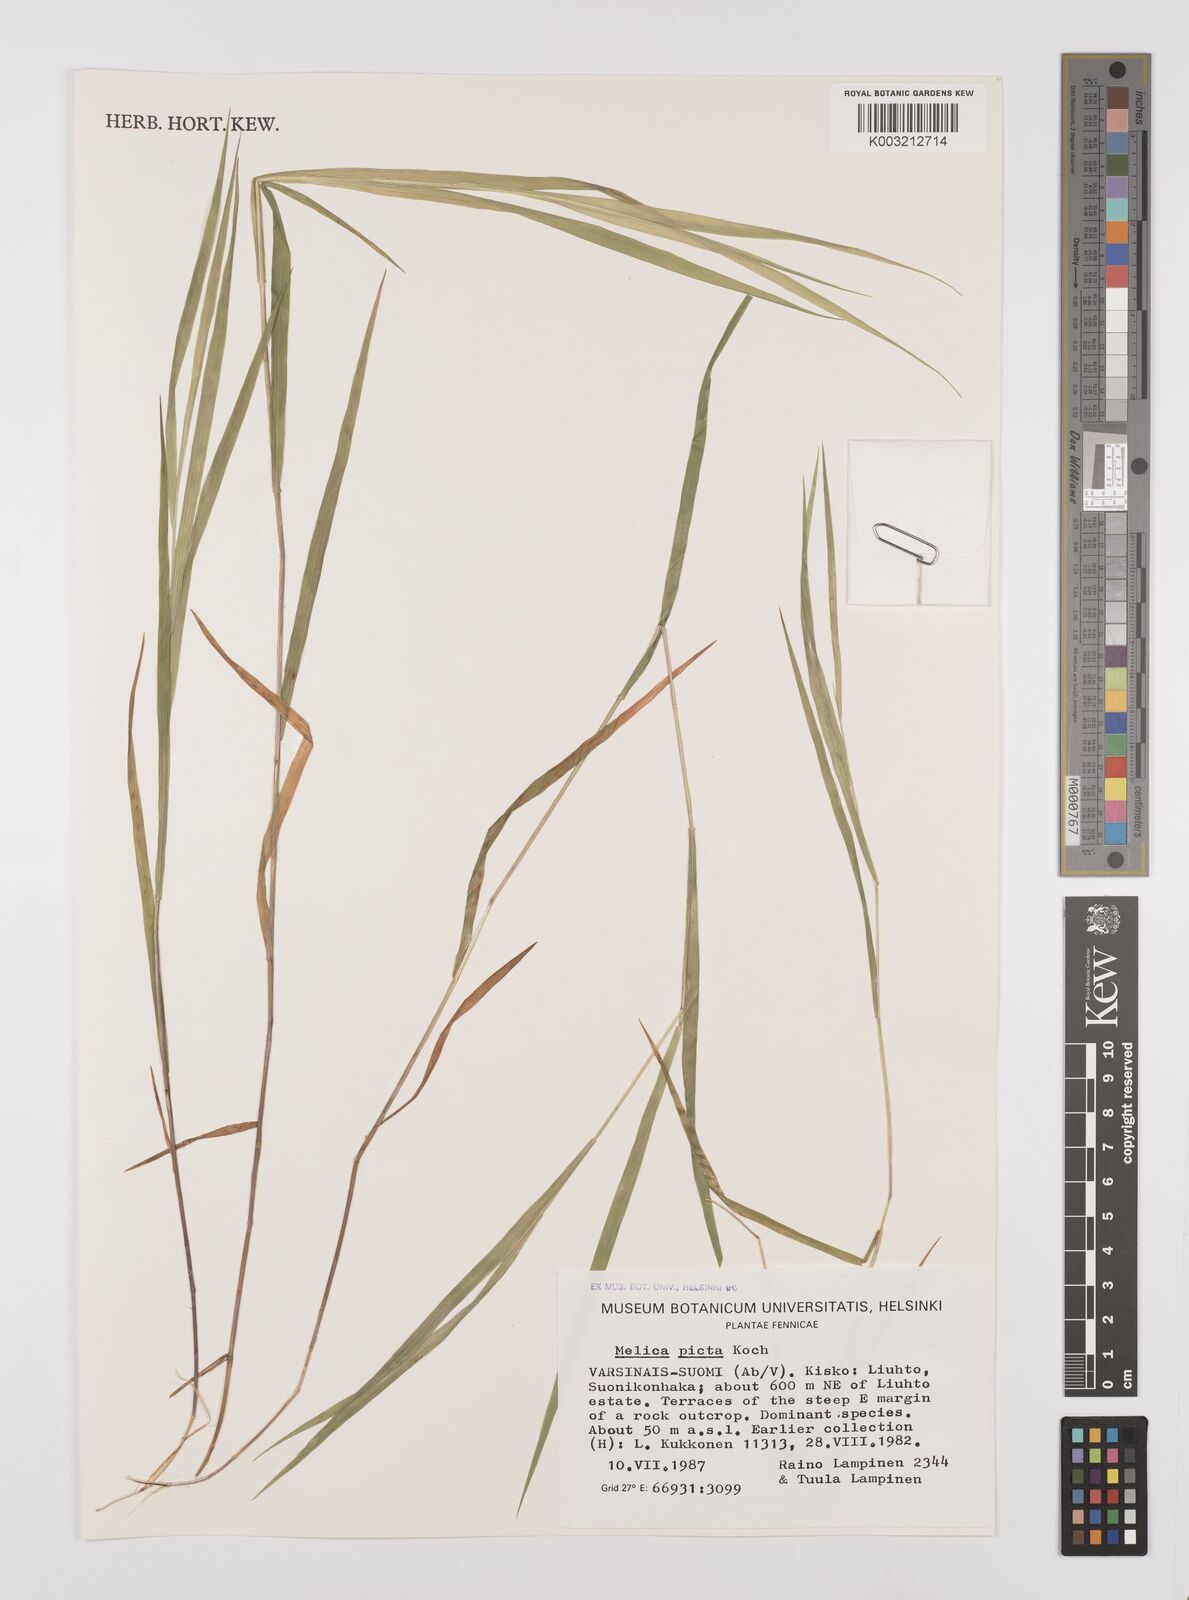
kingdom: Plantae
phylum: Tracheophyta
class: Liliopsida
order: Poales
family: Poaceae
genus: Melica
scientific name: Melica picta
